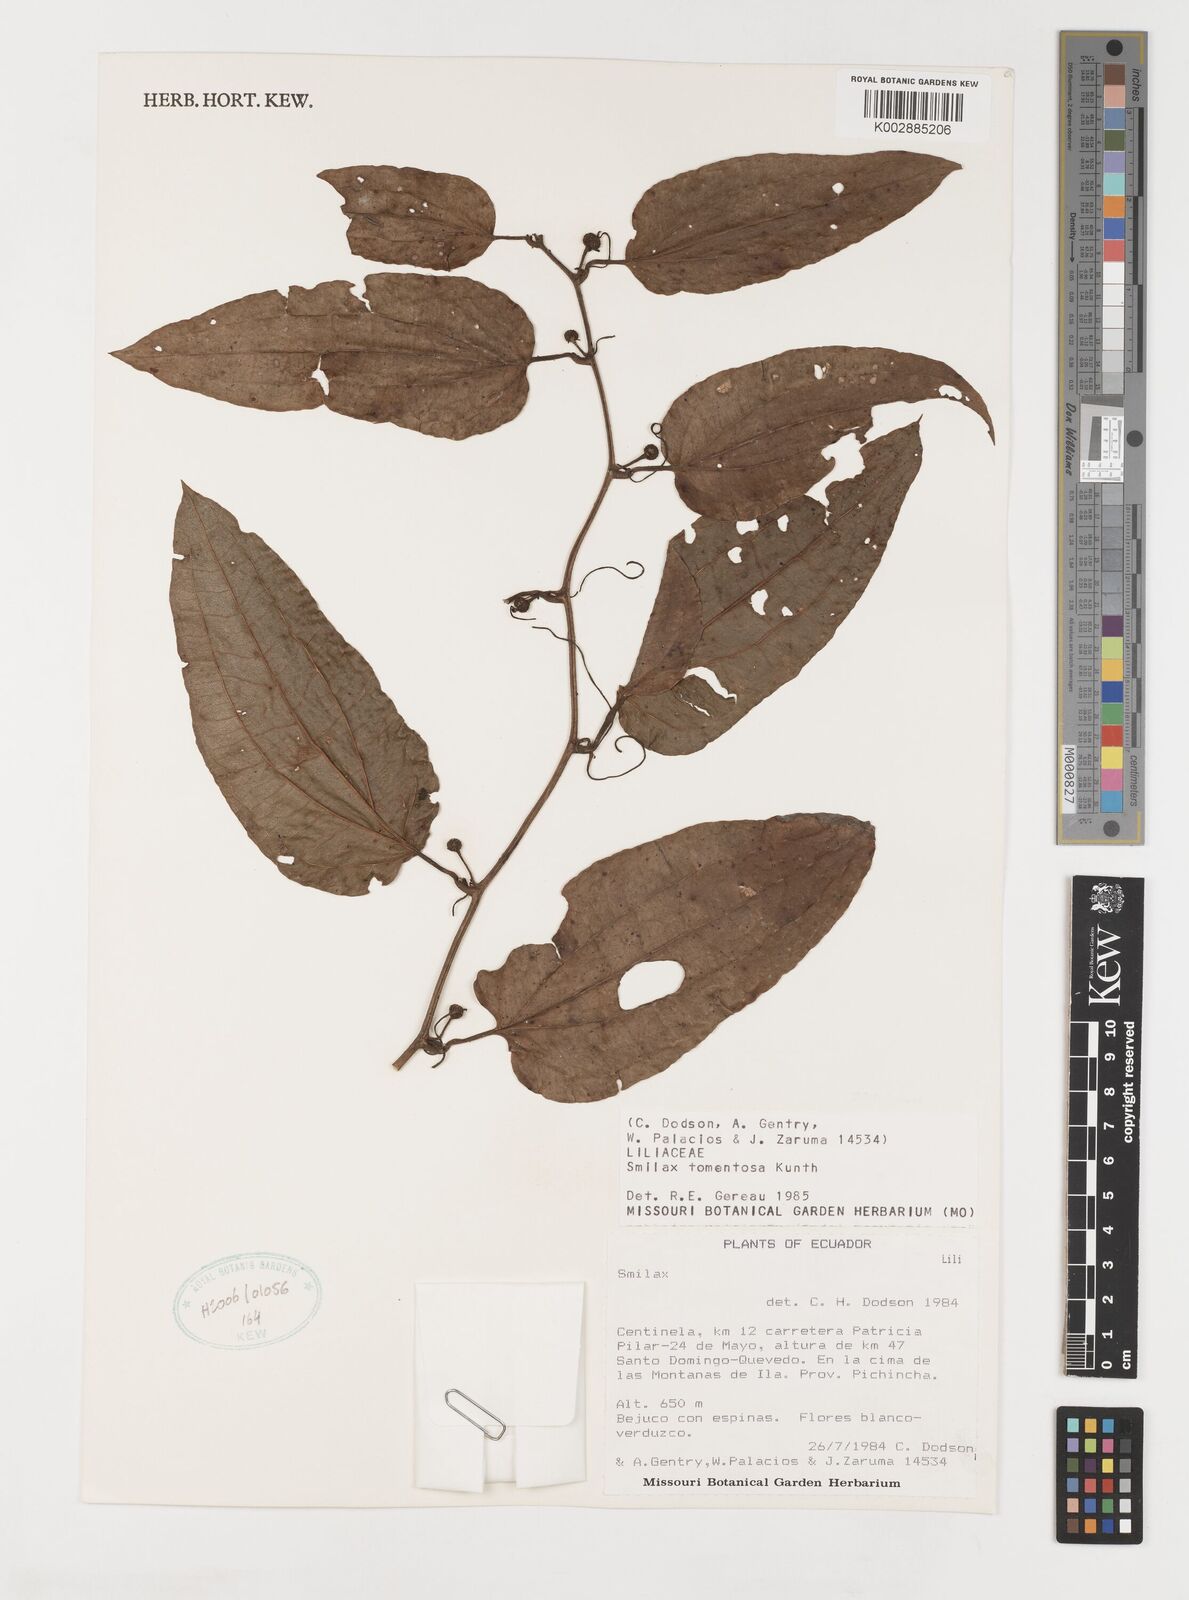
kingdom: Plantae
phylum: Tracheophyta
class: Liliopsida
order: Liliales
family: Smilacaceae
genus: Smilax
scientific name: Smilax tomentosa
